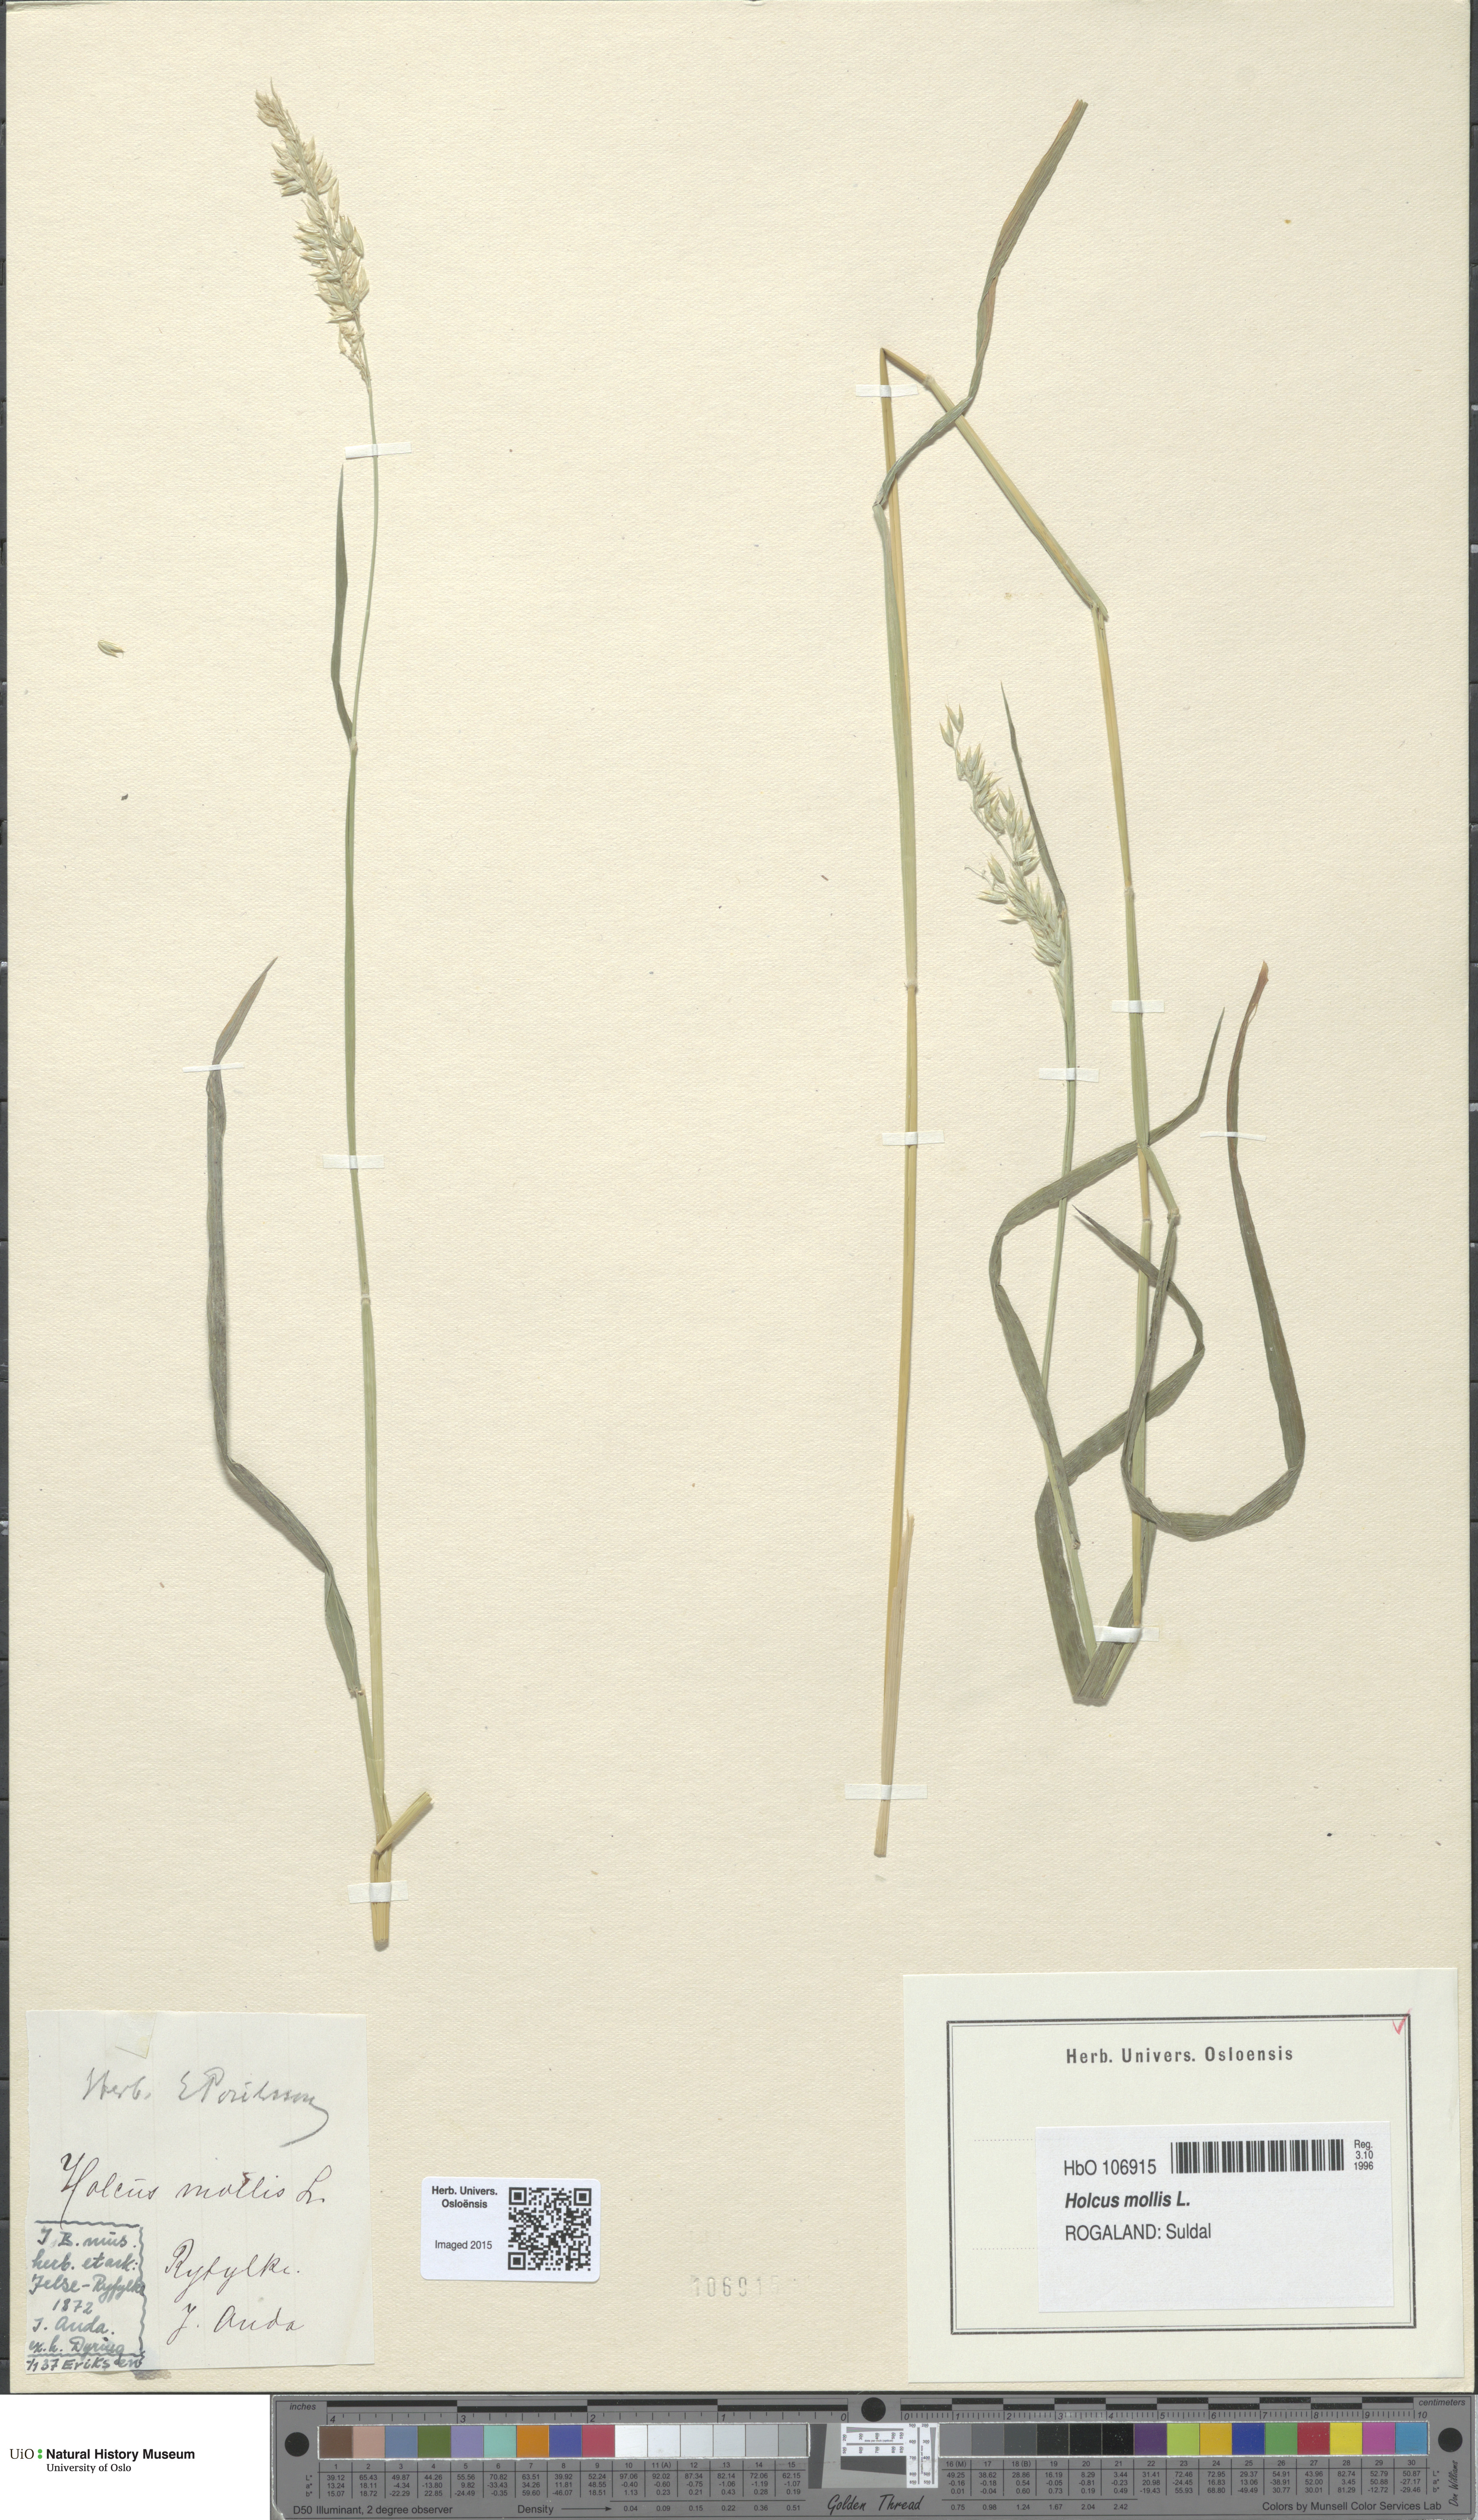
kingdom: Plantae
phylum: Tracheophyta
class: Liliopsida
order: Poales
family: Poaceae
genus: Holcus
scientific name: Holcus mollis
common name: Creeping velvetgrass
